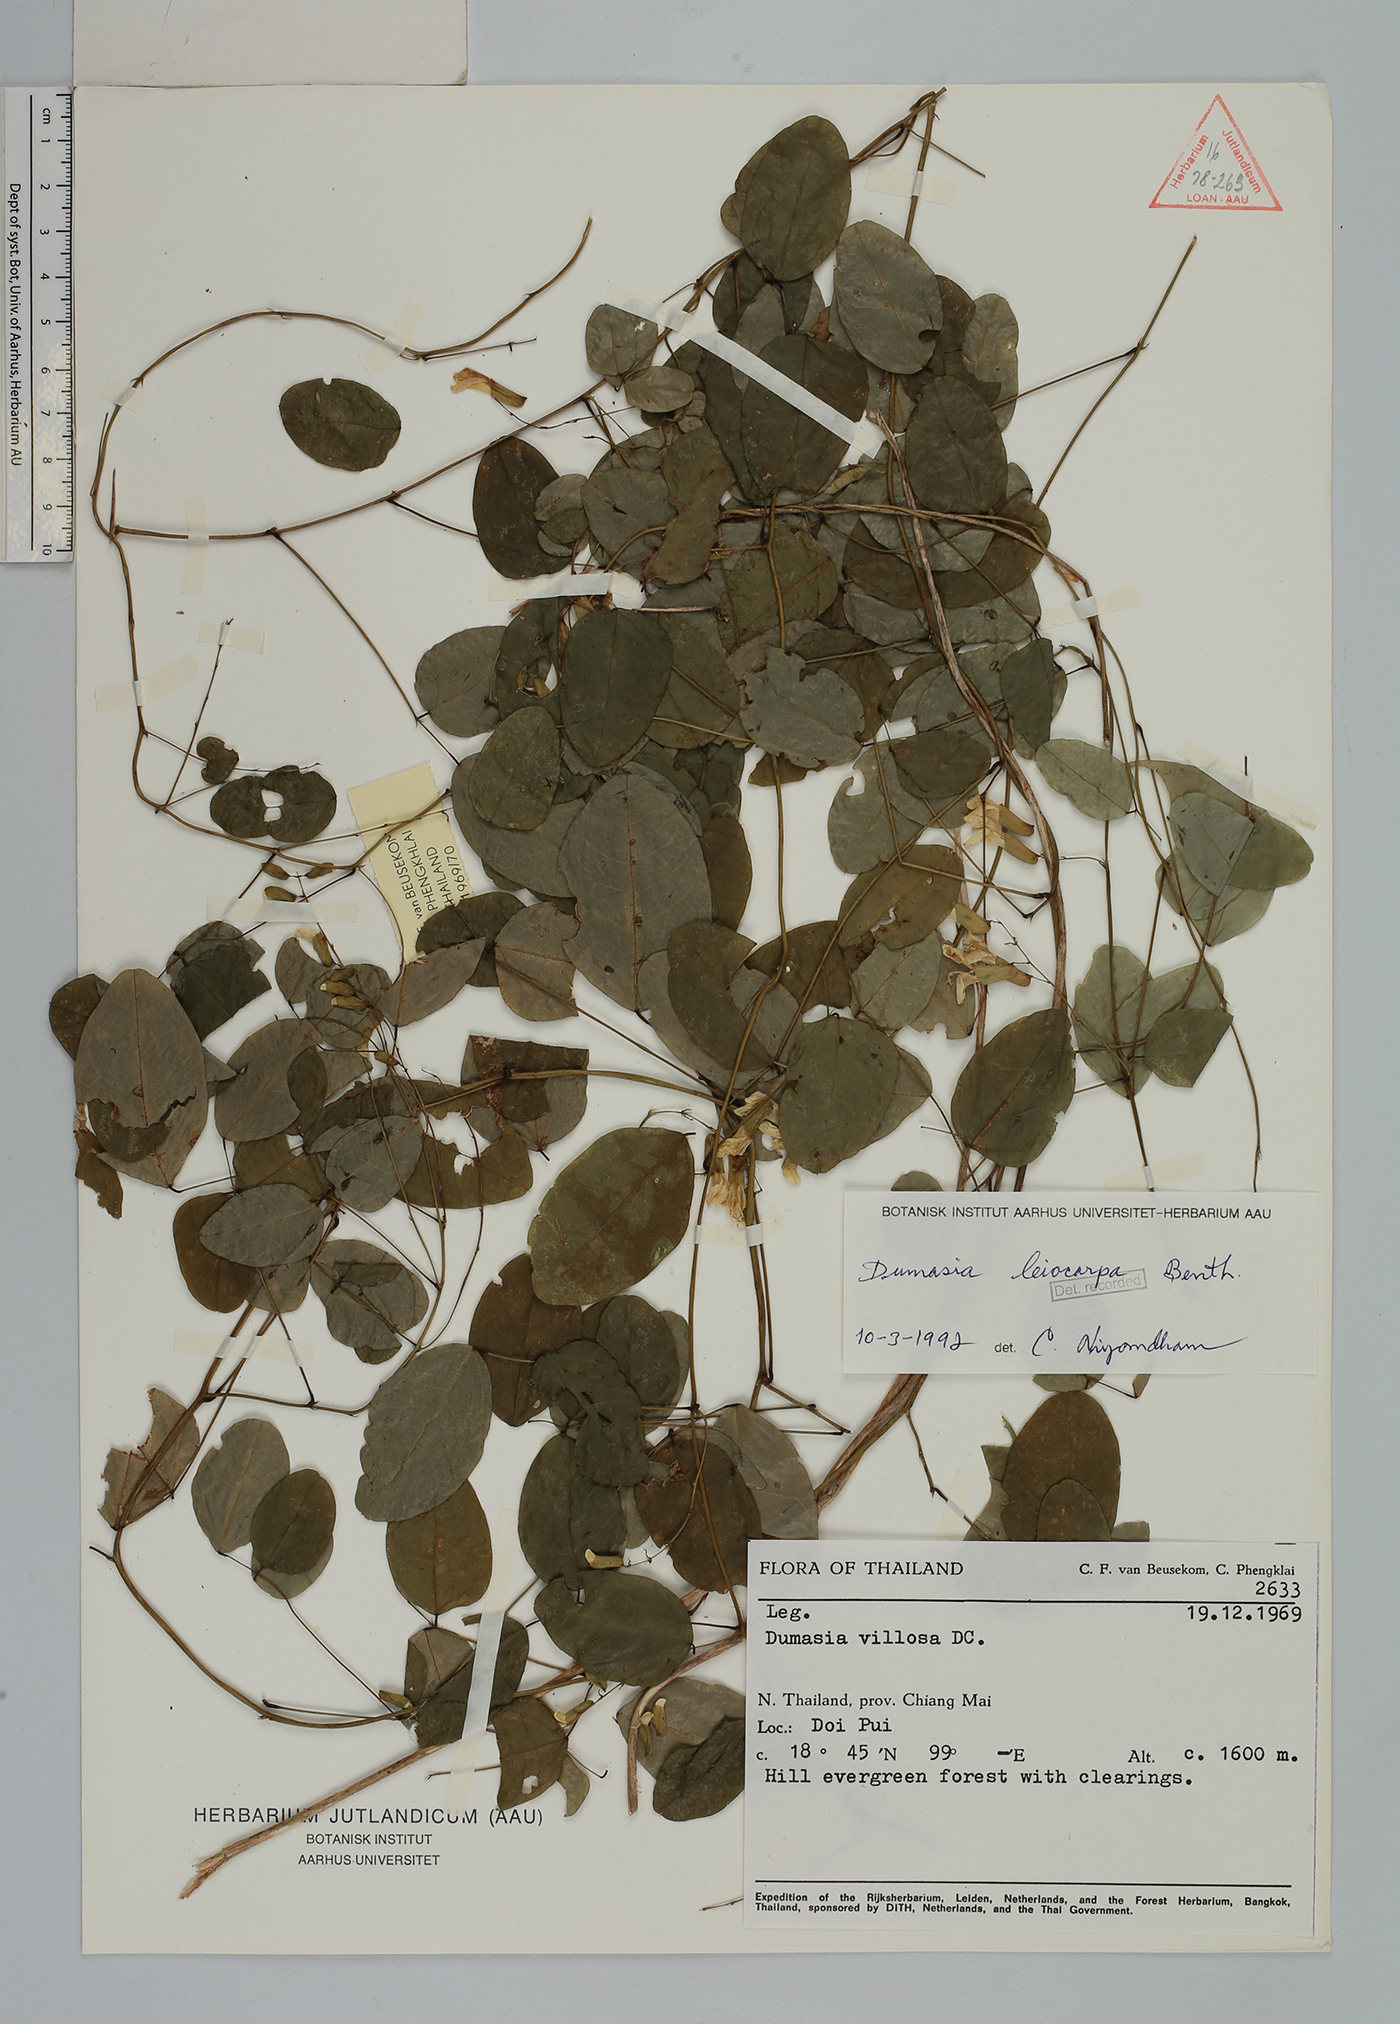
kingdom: Plantae
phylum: Tracheophyta
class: Magnoliopsida
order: Fabales
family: Fabaceae
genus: Dumasia
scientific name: Dumasia villosa
